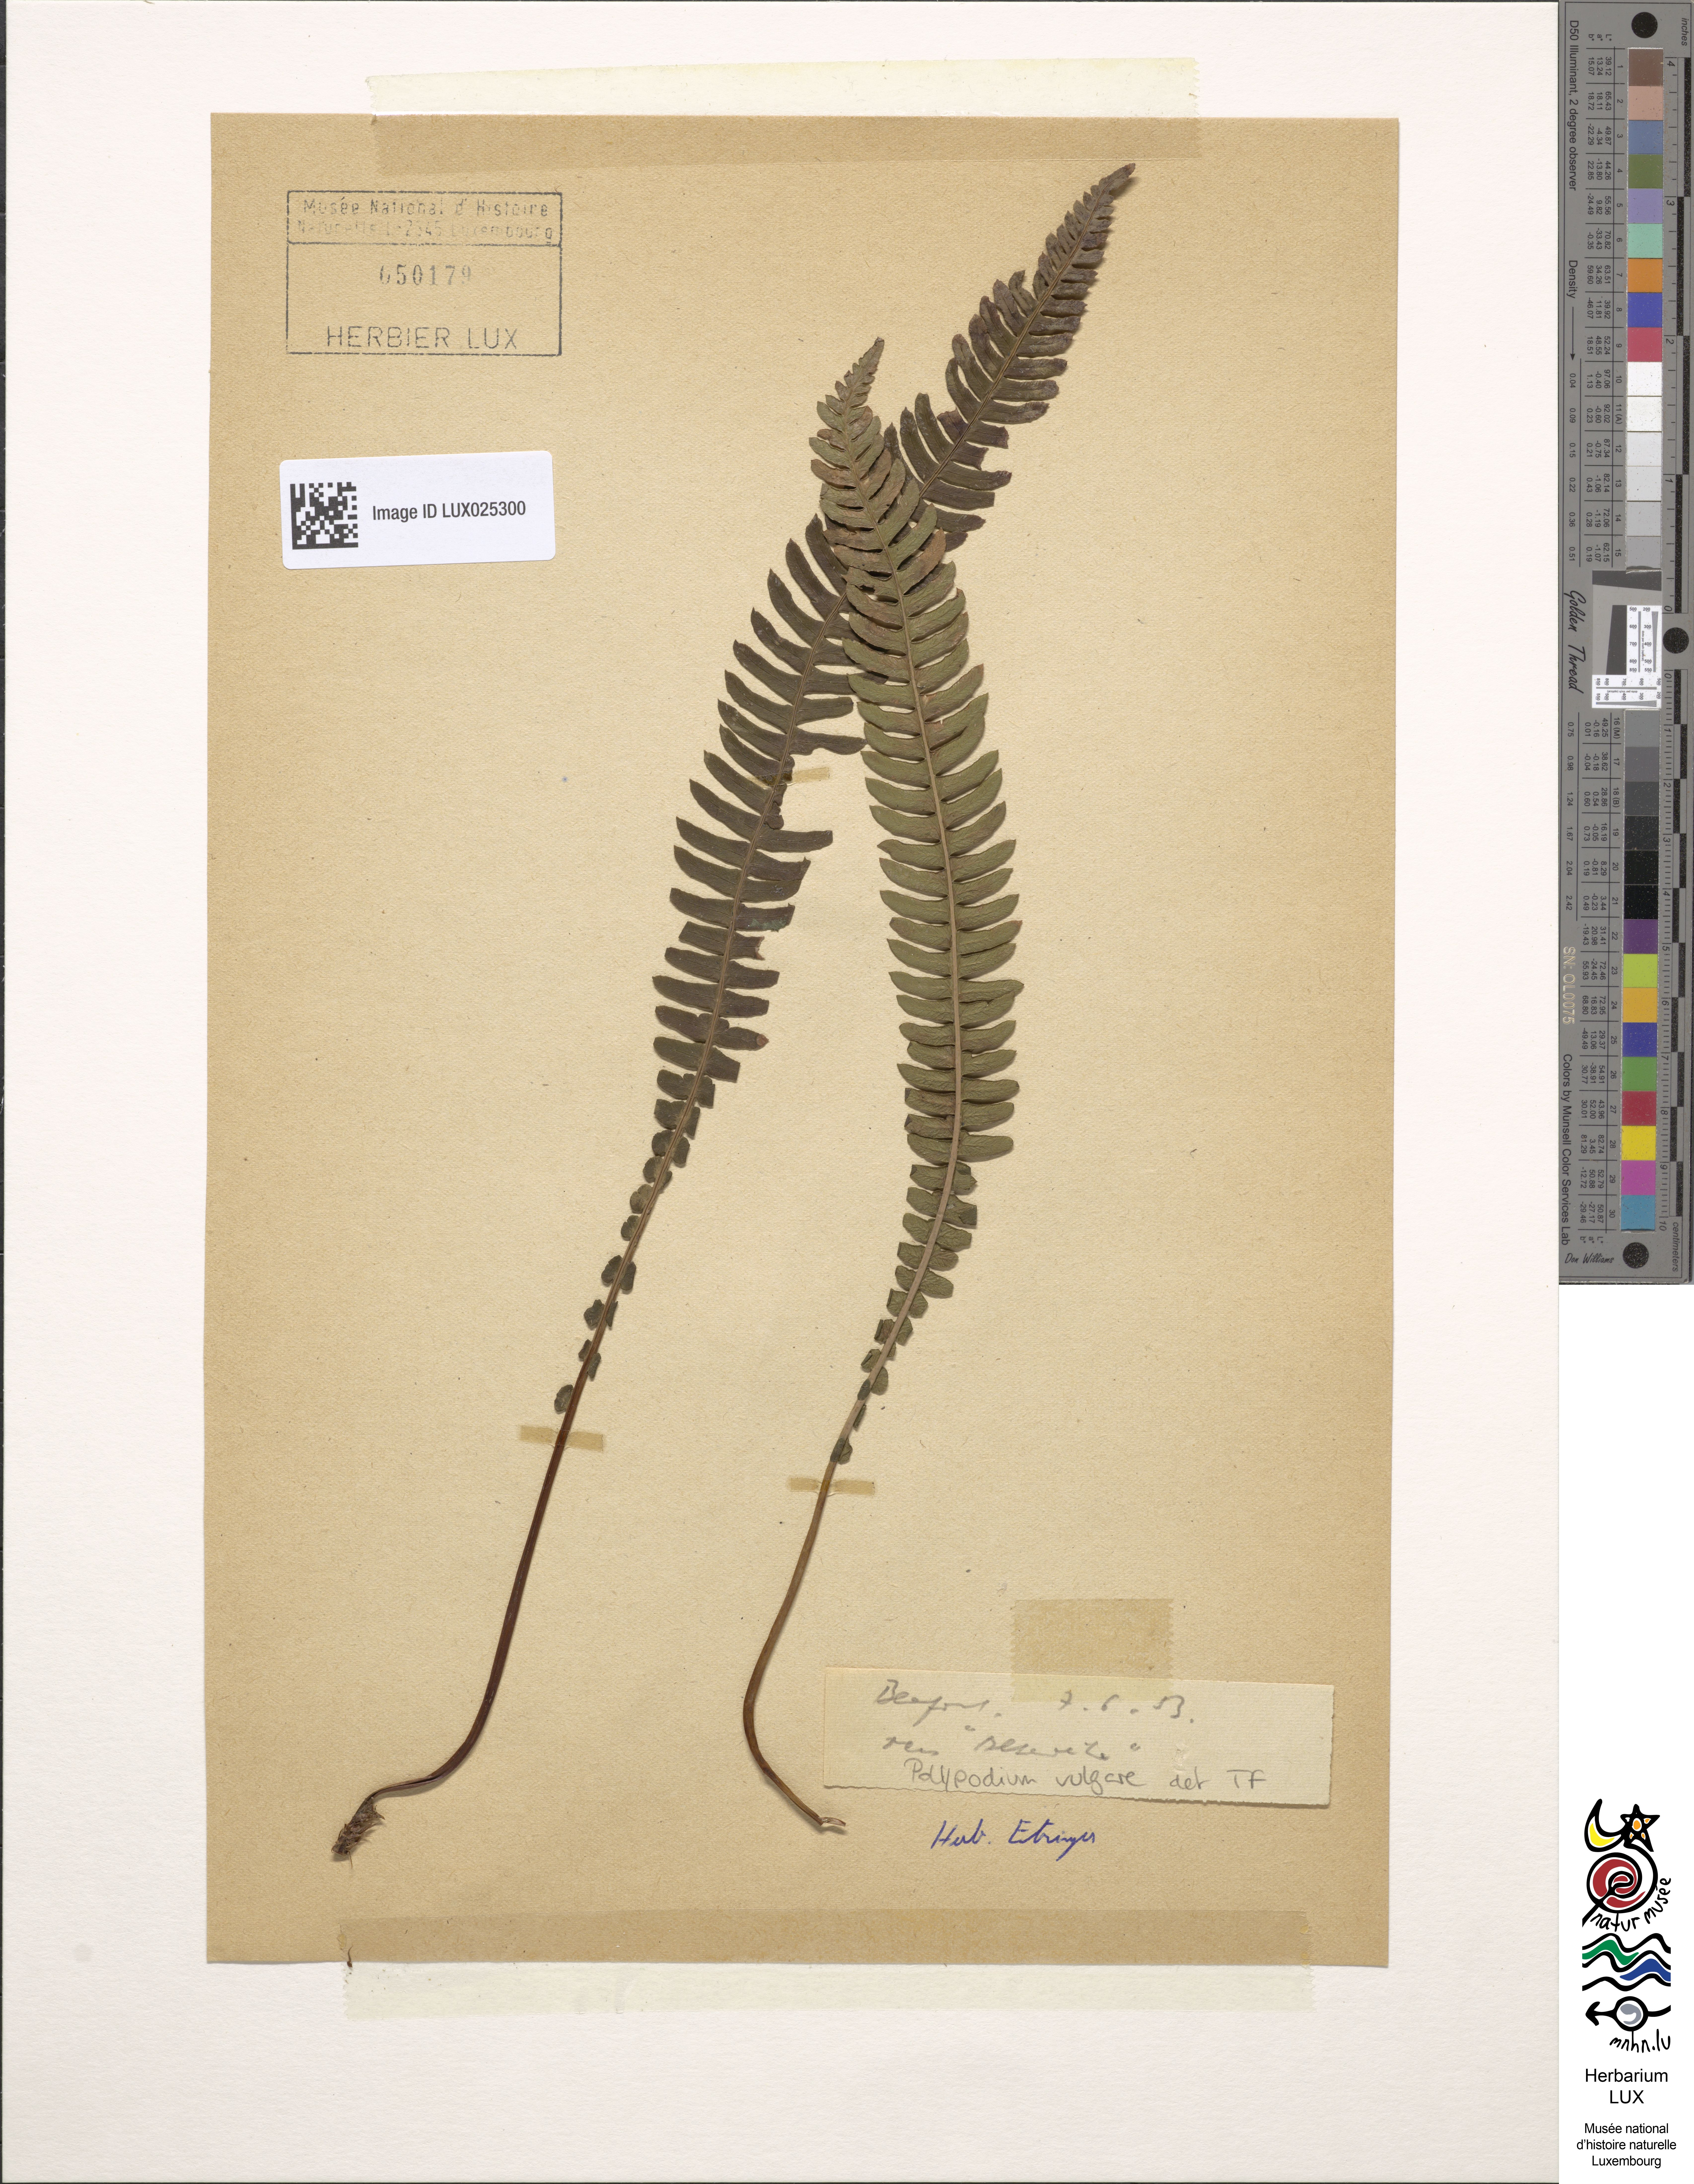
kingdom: Plantae
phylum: Tracheophyta
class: Polypodiopsida
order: Polypodiales
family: Polypodiaceae
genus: Polypodium
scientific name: Polypodium vulgare
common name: Common polypody
